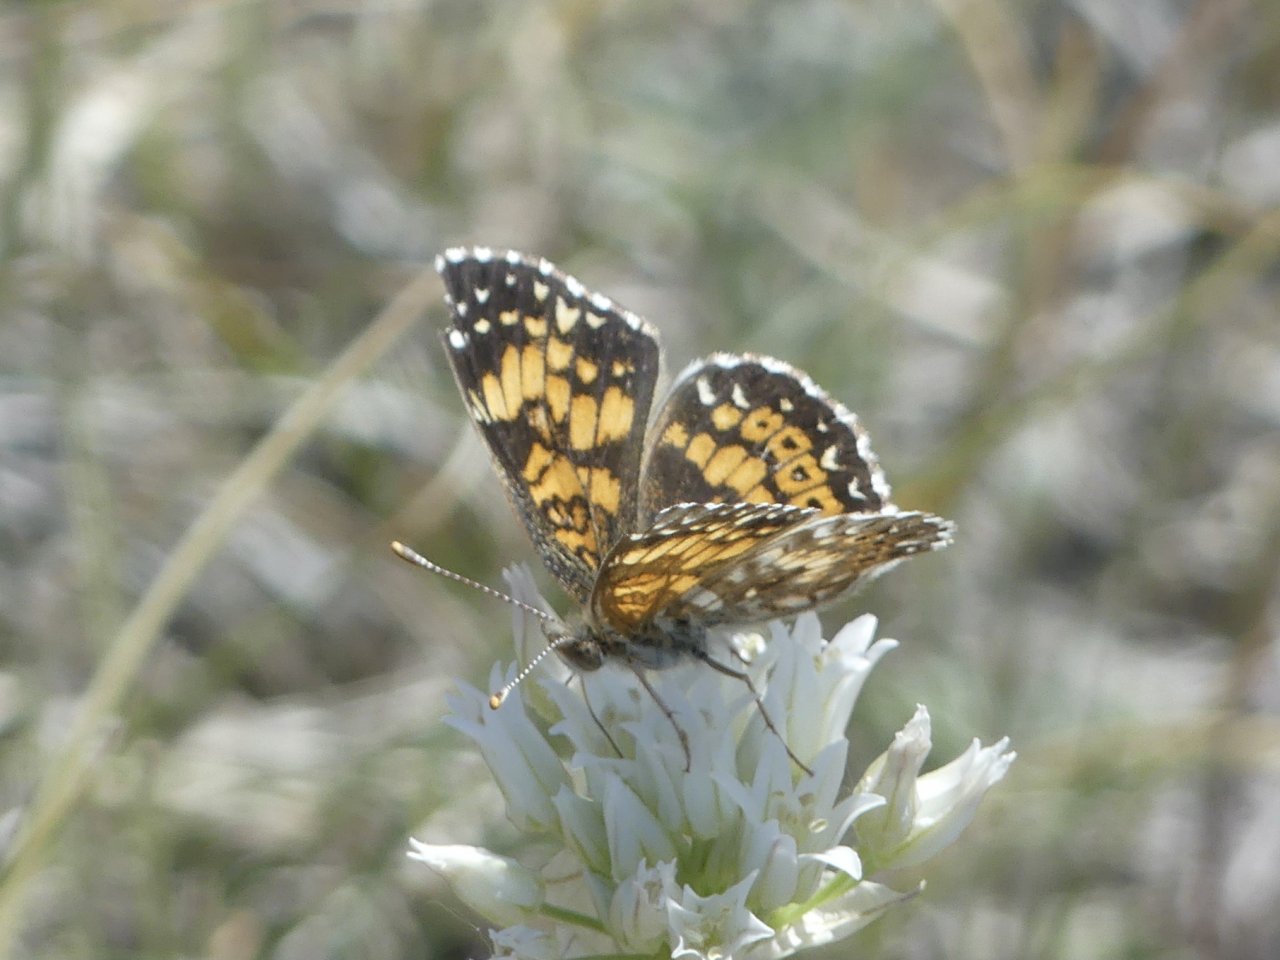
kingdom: Animalia
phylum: Arthropoda
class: Insecta
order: Lepidoptera
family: Nymphalidae
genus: Phyciodes
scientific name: Phyciodes
